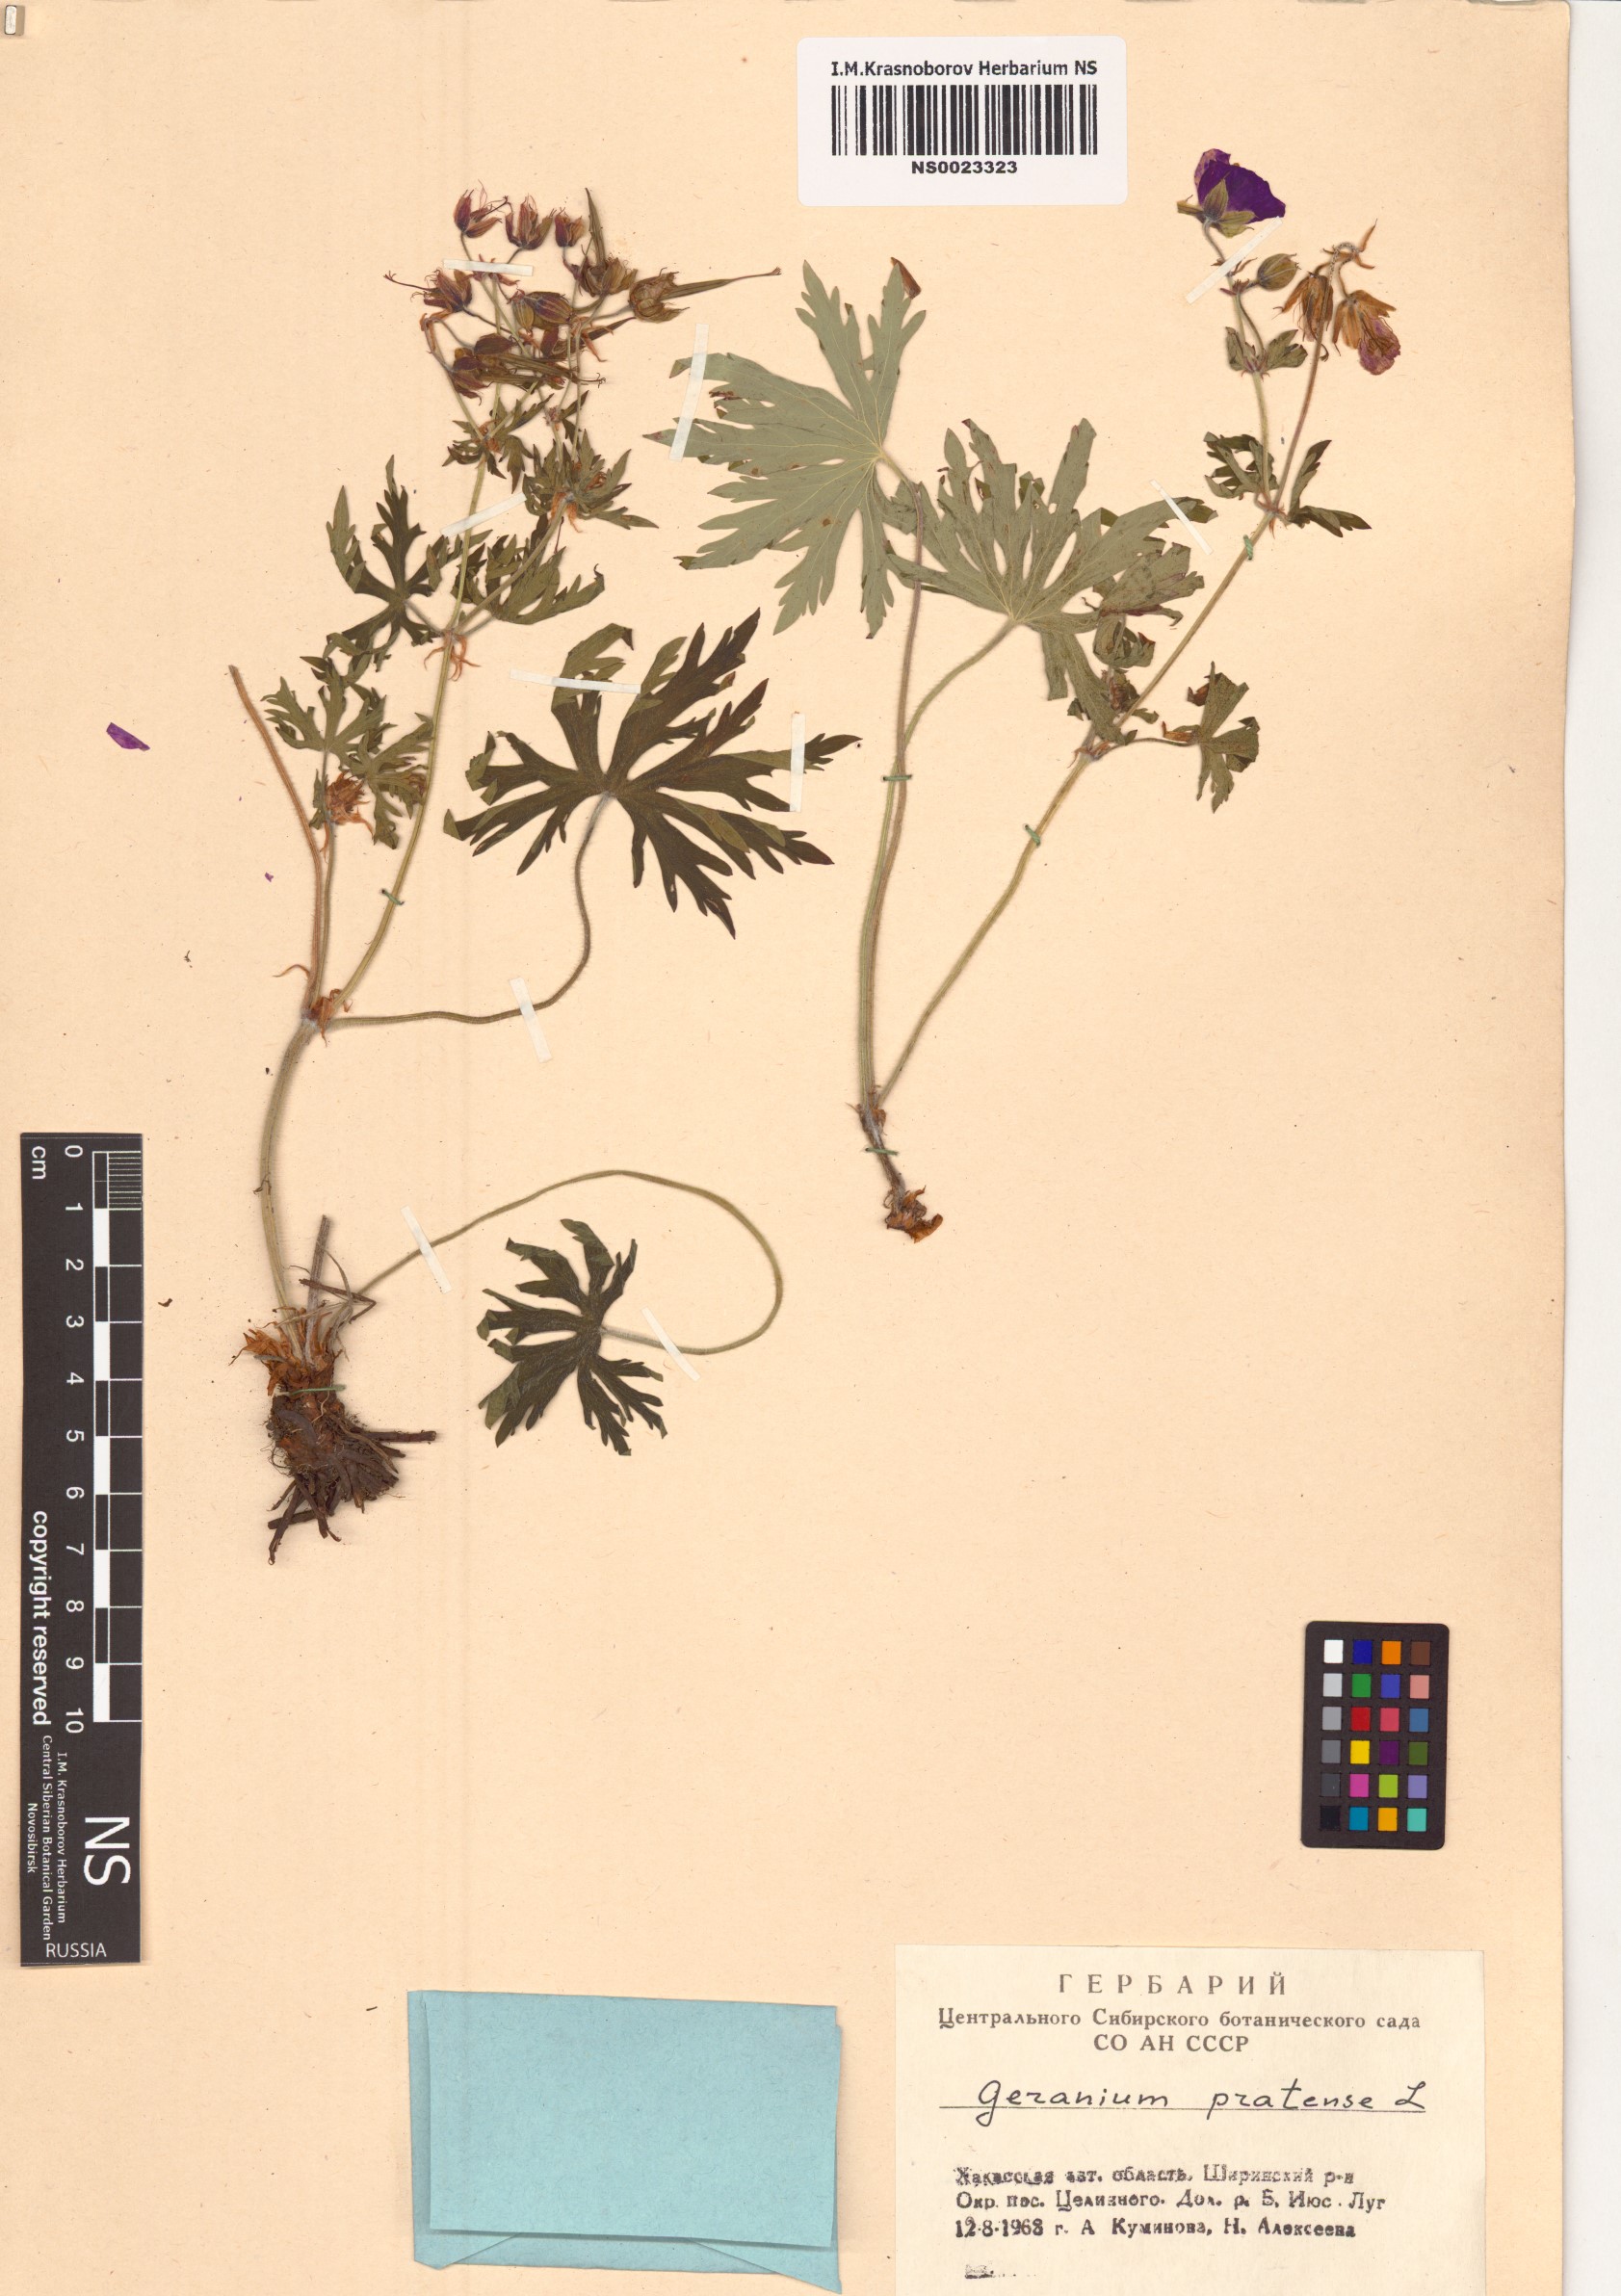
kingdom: Plantae
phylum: Tracheophyta
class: Magnoliopsida
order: Geraniales
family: Geraniaceae
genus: Geranium
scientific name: Geranium pratense
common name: Meadow crane's-bill
